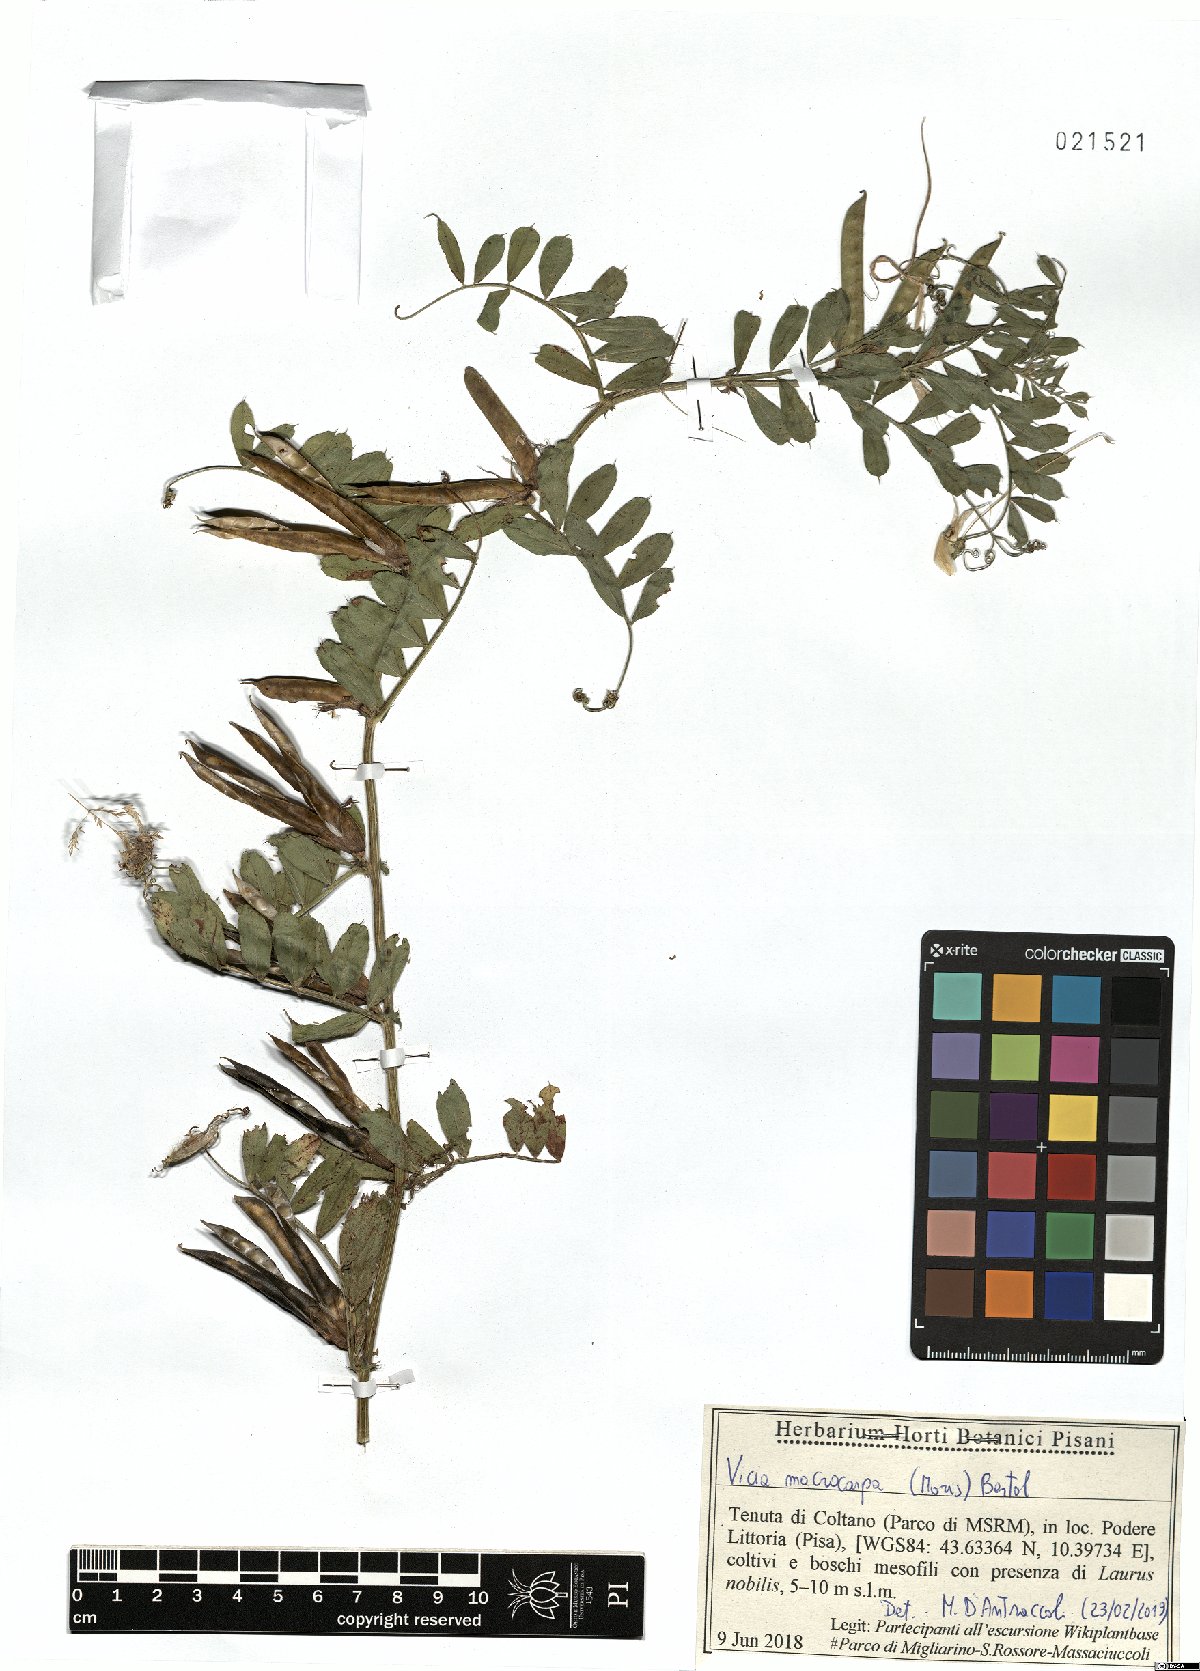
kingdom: Plantae
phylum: Tracheophyta
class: Magnoliopsida
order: Fabales
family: Fabaceae
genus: Vicia
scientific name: Vicia sativa
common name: Garden vetch
